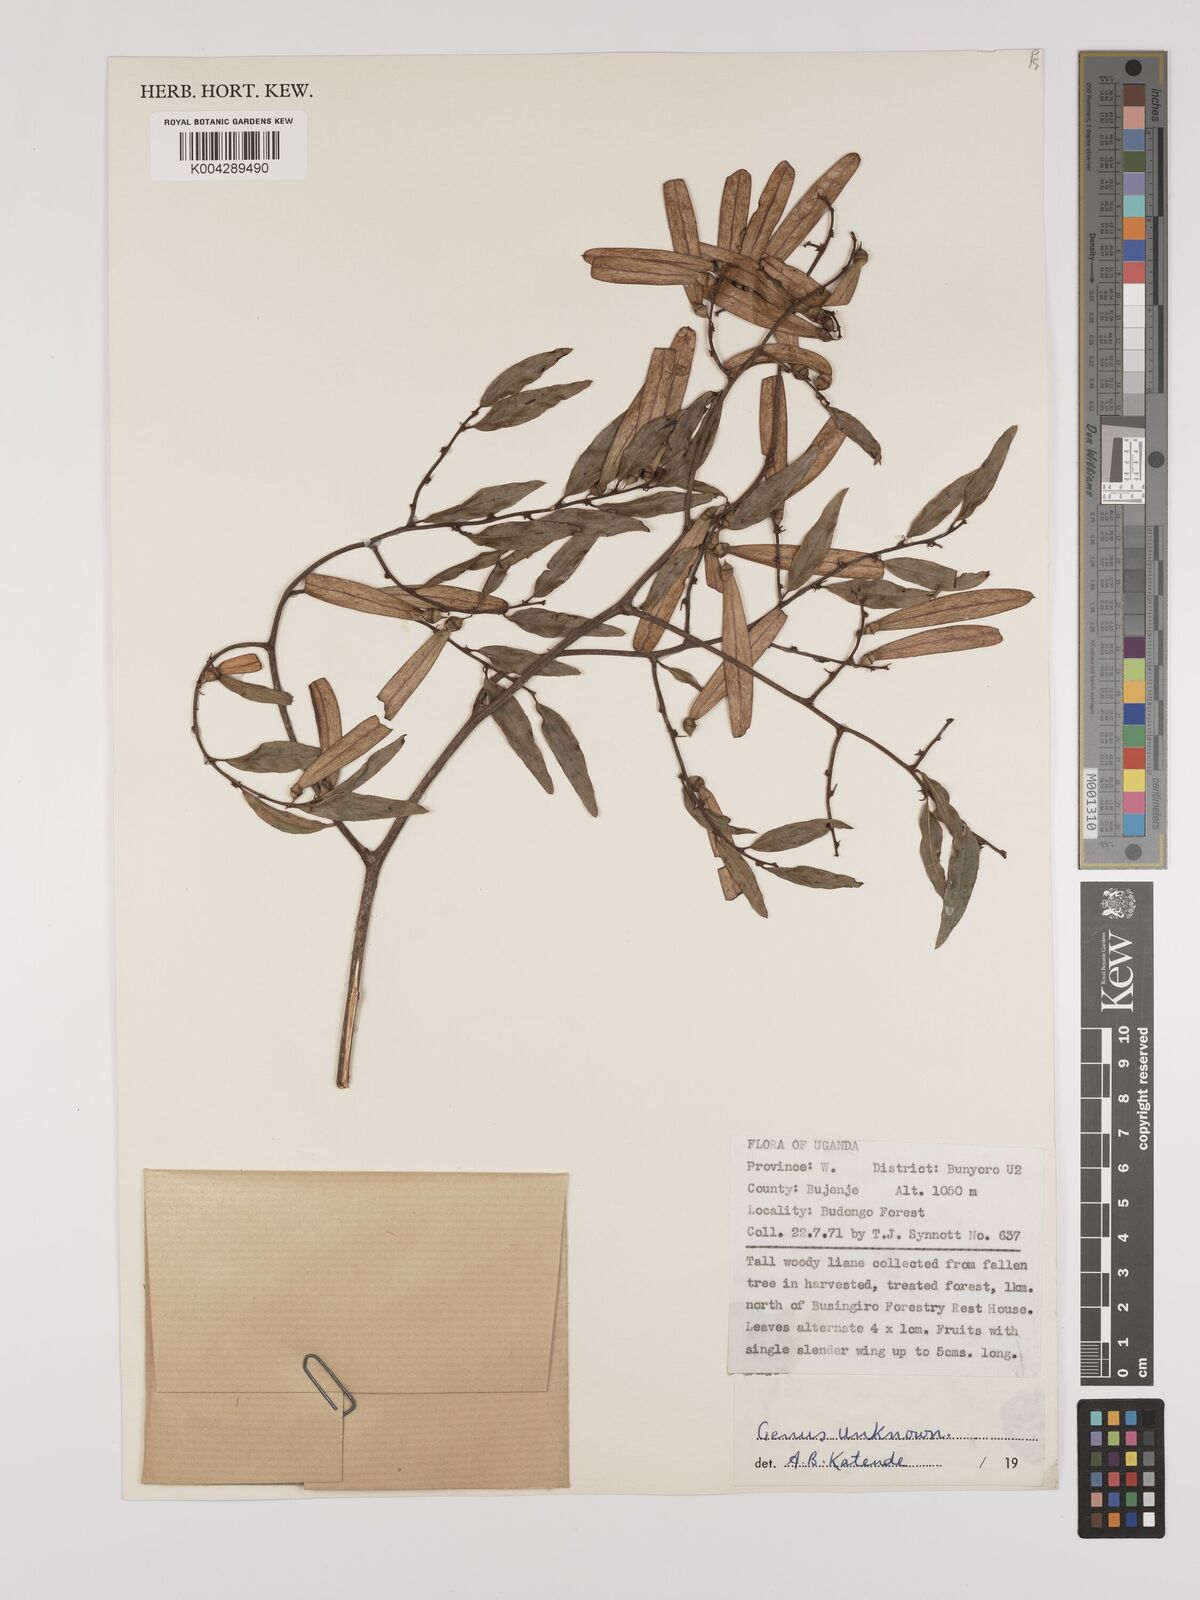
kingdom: Plantae
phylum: Tracheophyta
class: Magnoliopsida
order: Rosales
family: Rhamnaceae
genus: Ventilago
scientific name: Ventilago africana
